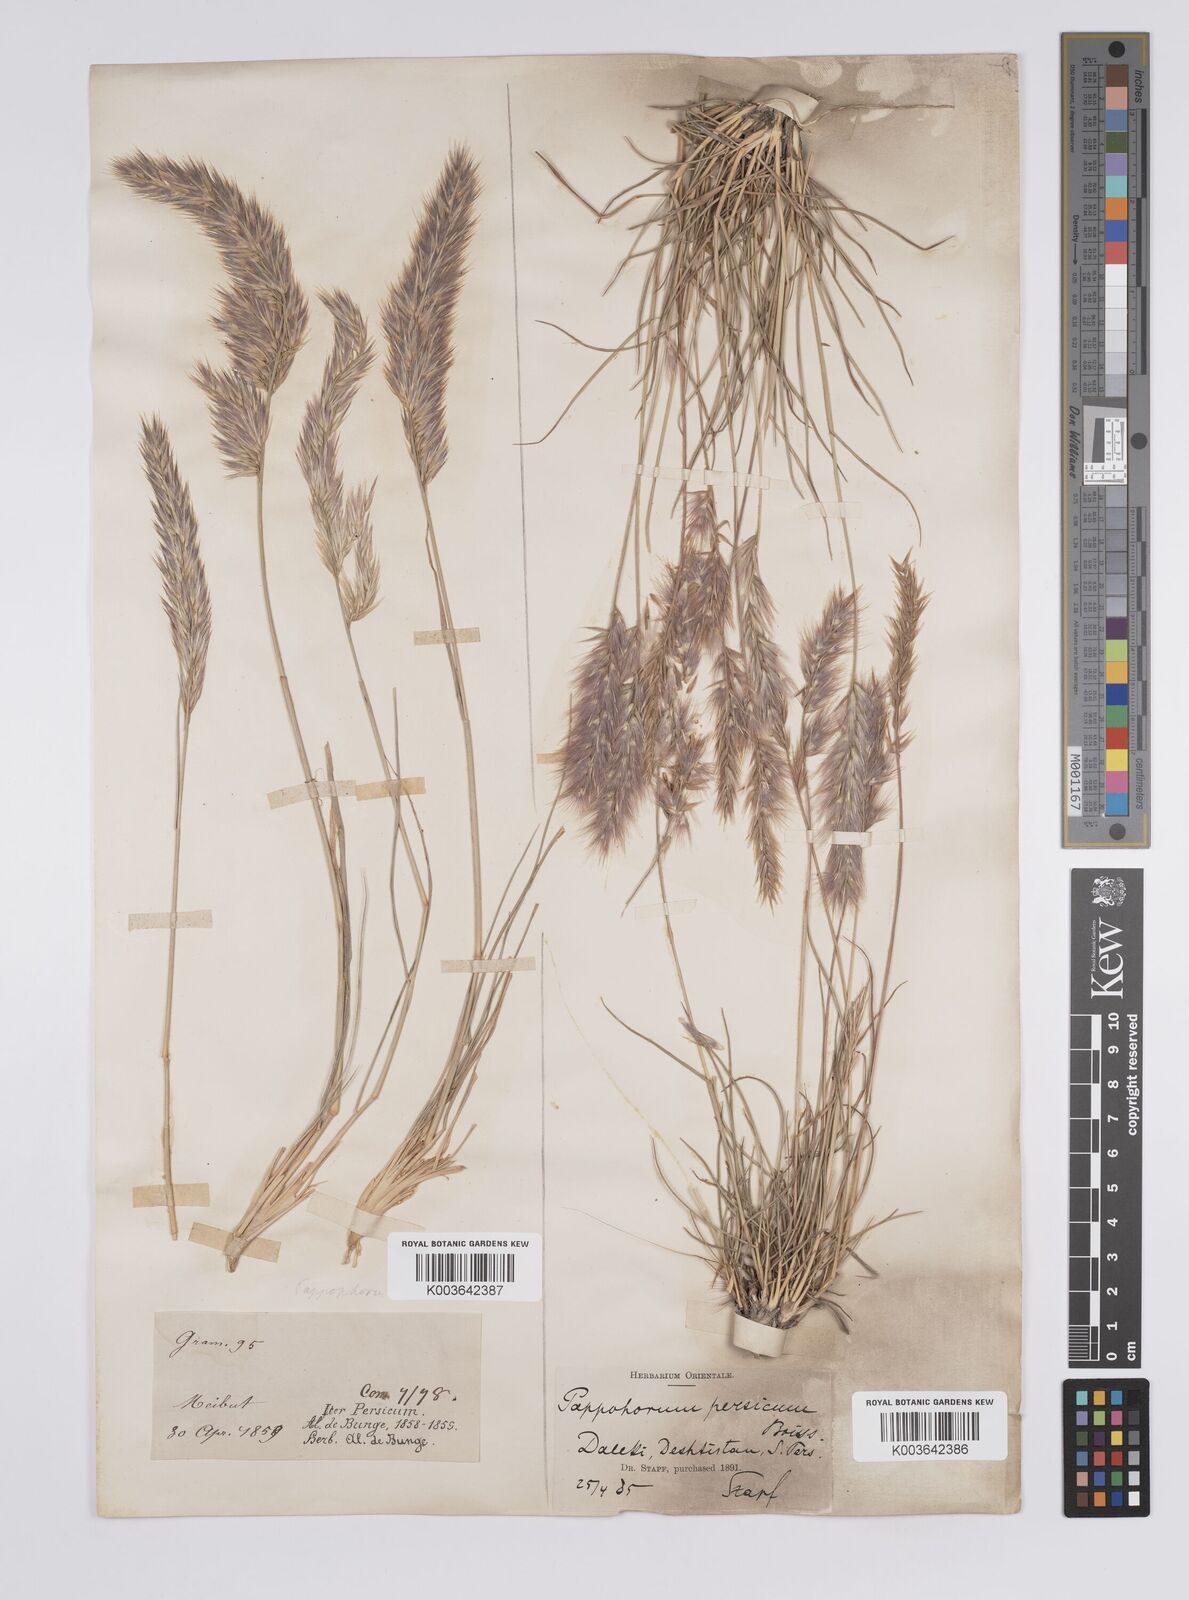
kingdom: Plantae
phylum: Tracheophyta
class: Liliopsida
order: Poales
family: Poaceae
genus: Enneapogon
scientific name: Enneapogon persicus
